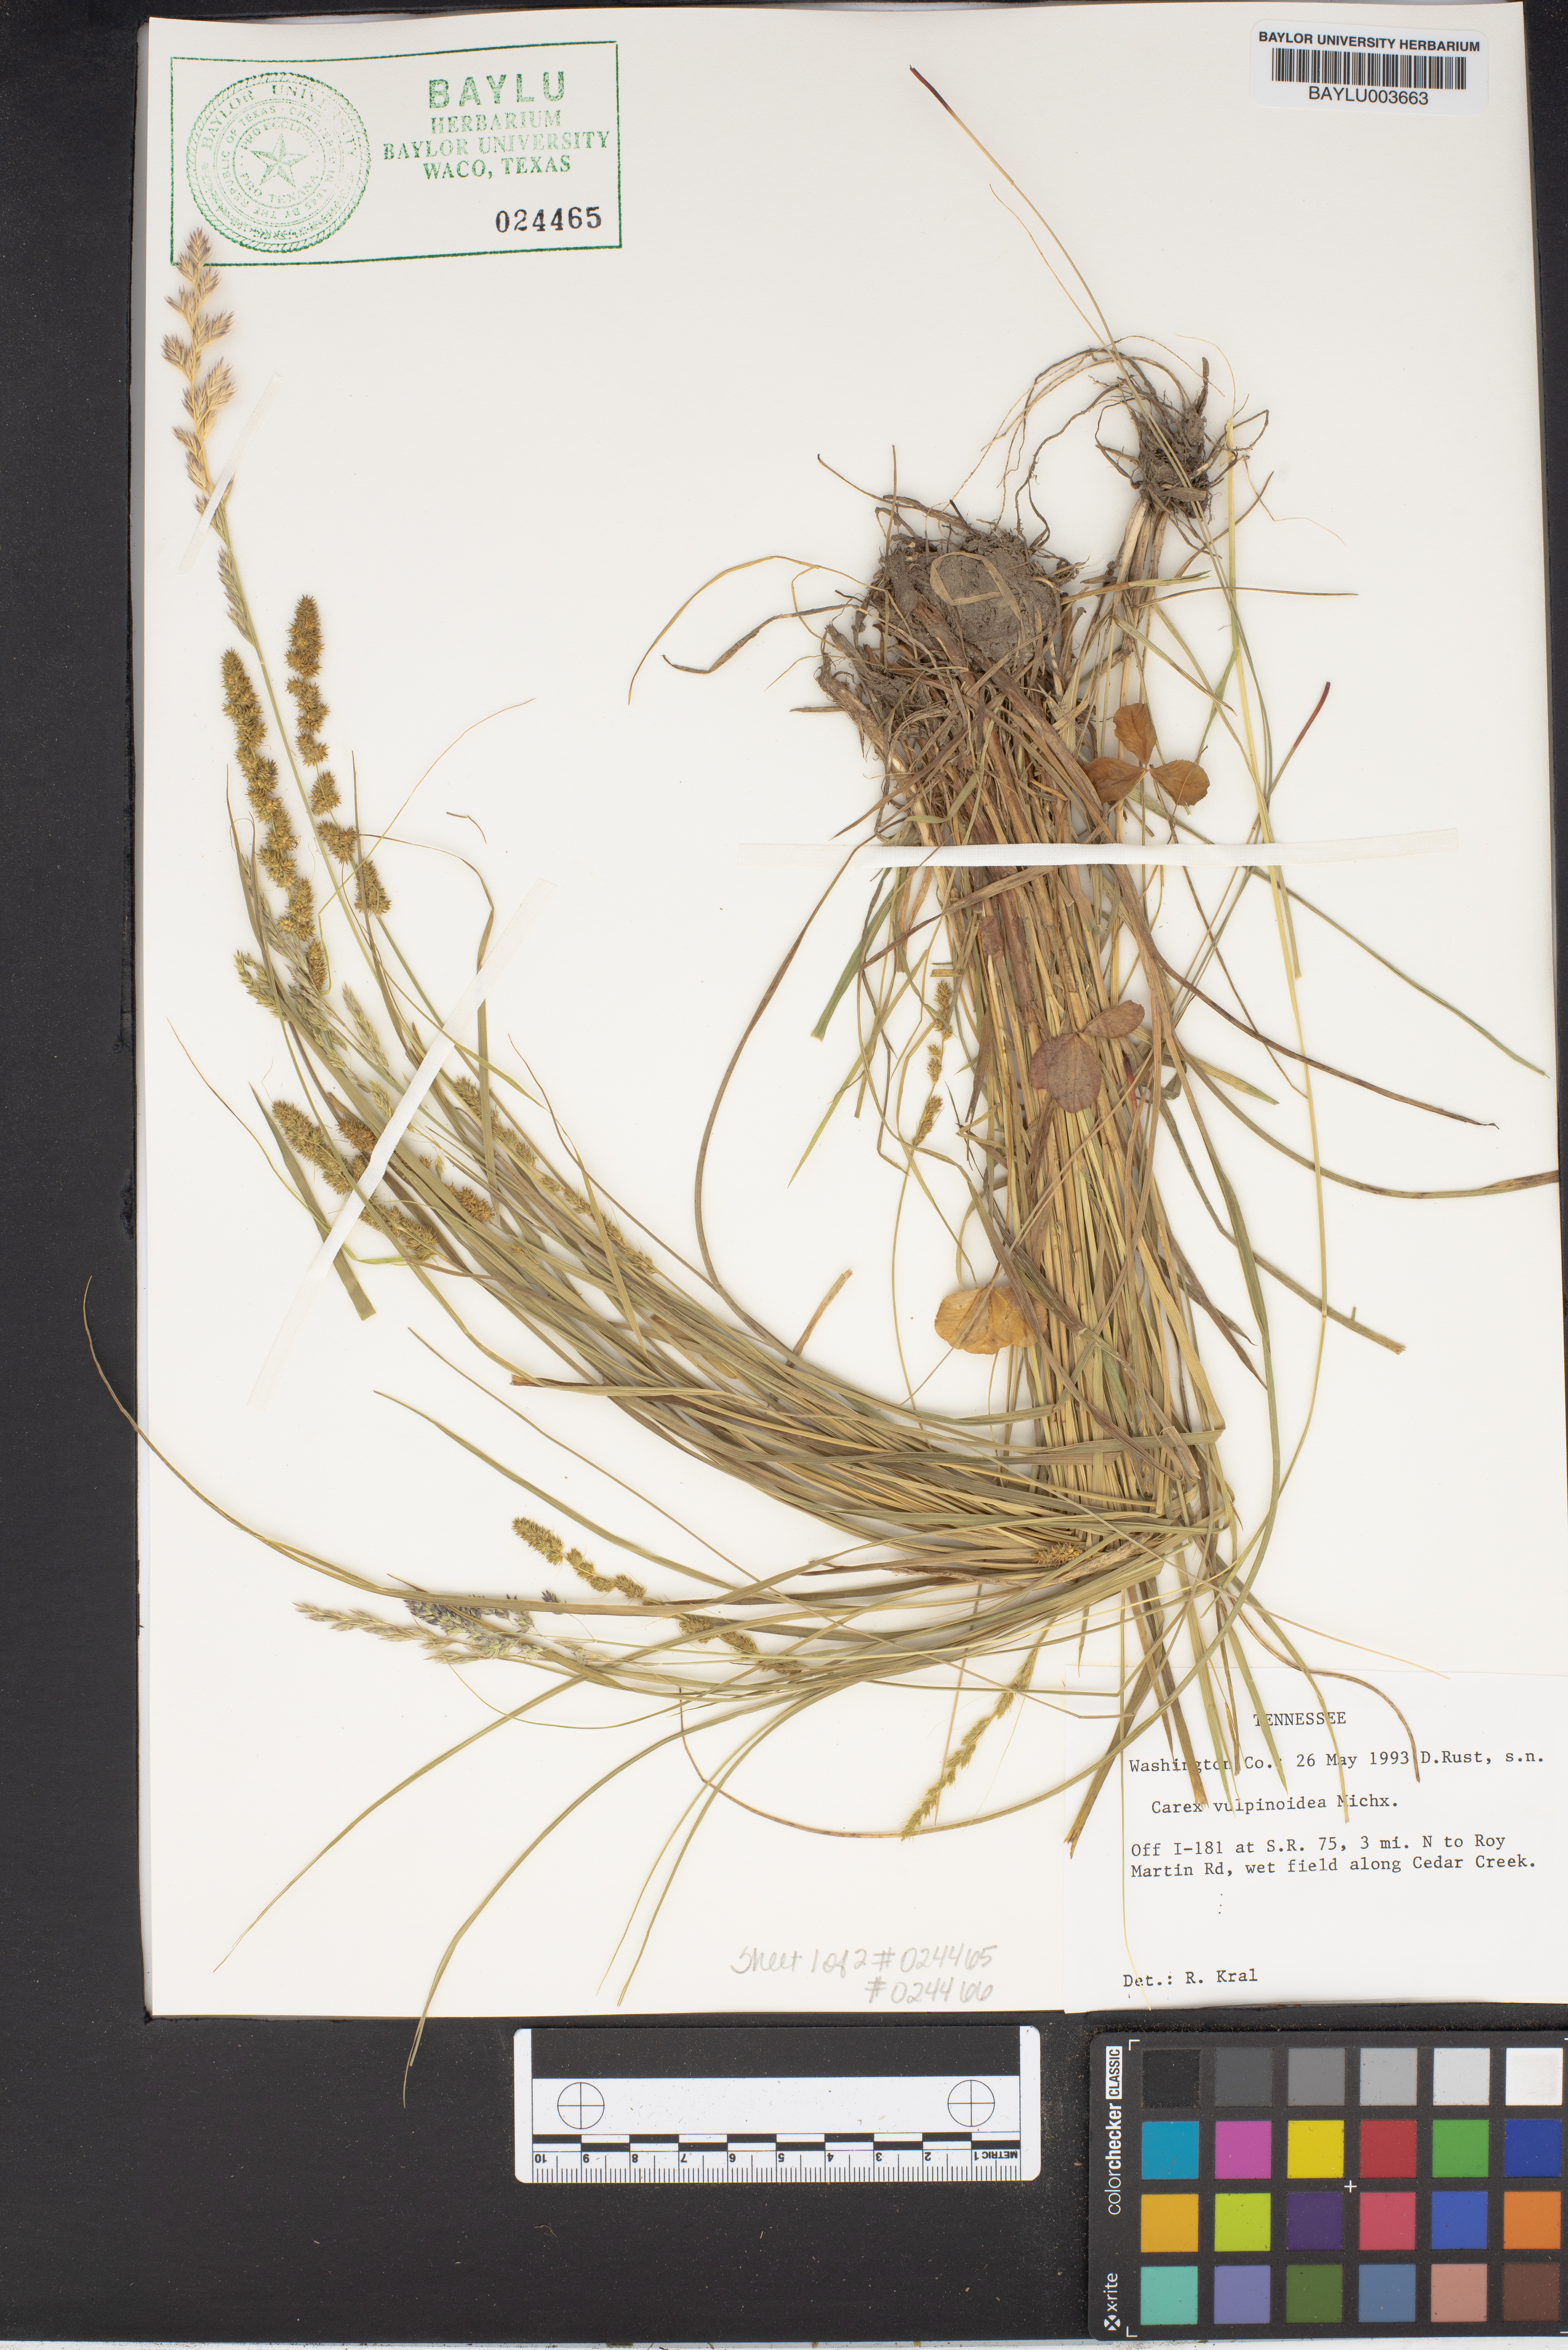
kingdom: Plantae
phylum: Tracheophyta
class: Liliopsida
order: Poales
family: Cyperaceae
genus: Carex
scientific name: Carex vulpinoidea
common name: American fox-sedge
